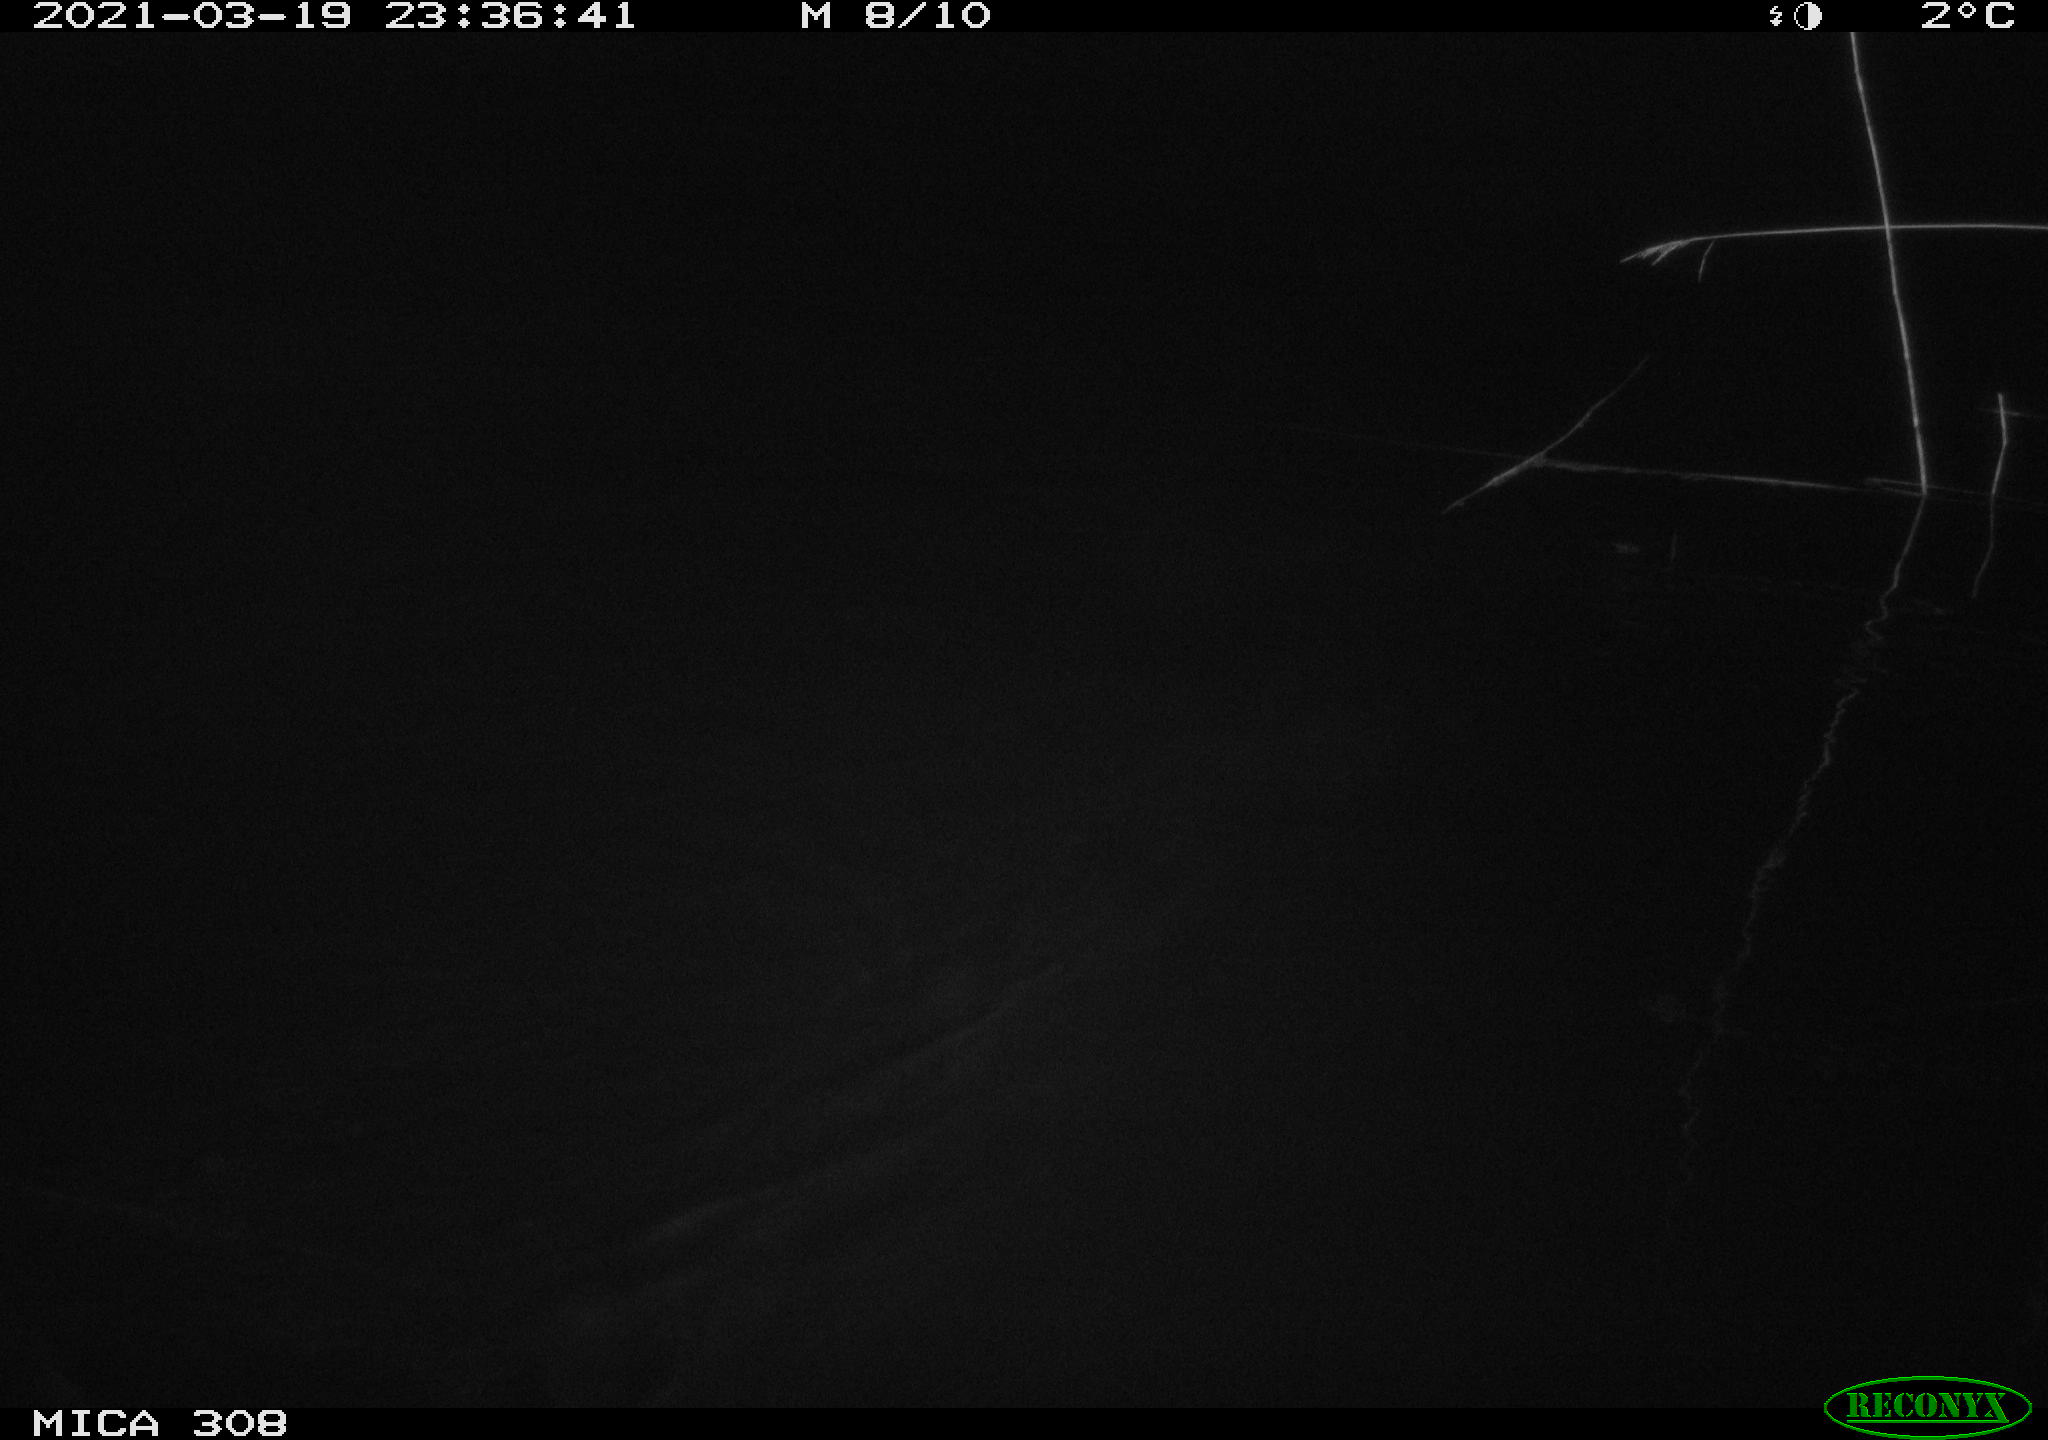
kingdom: Animalia
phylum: Chordata
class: Mammalia
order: Rodentia
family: Cricetidae
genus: Ondatra
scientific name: Ondatra zibethicus
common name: Muskrat
